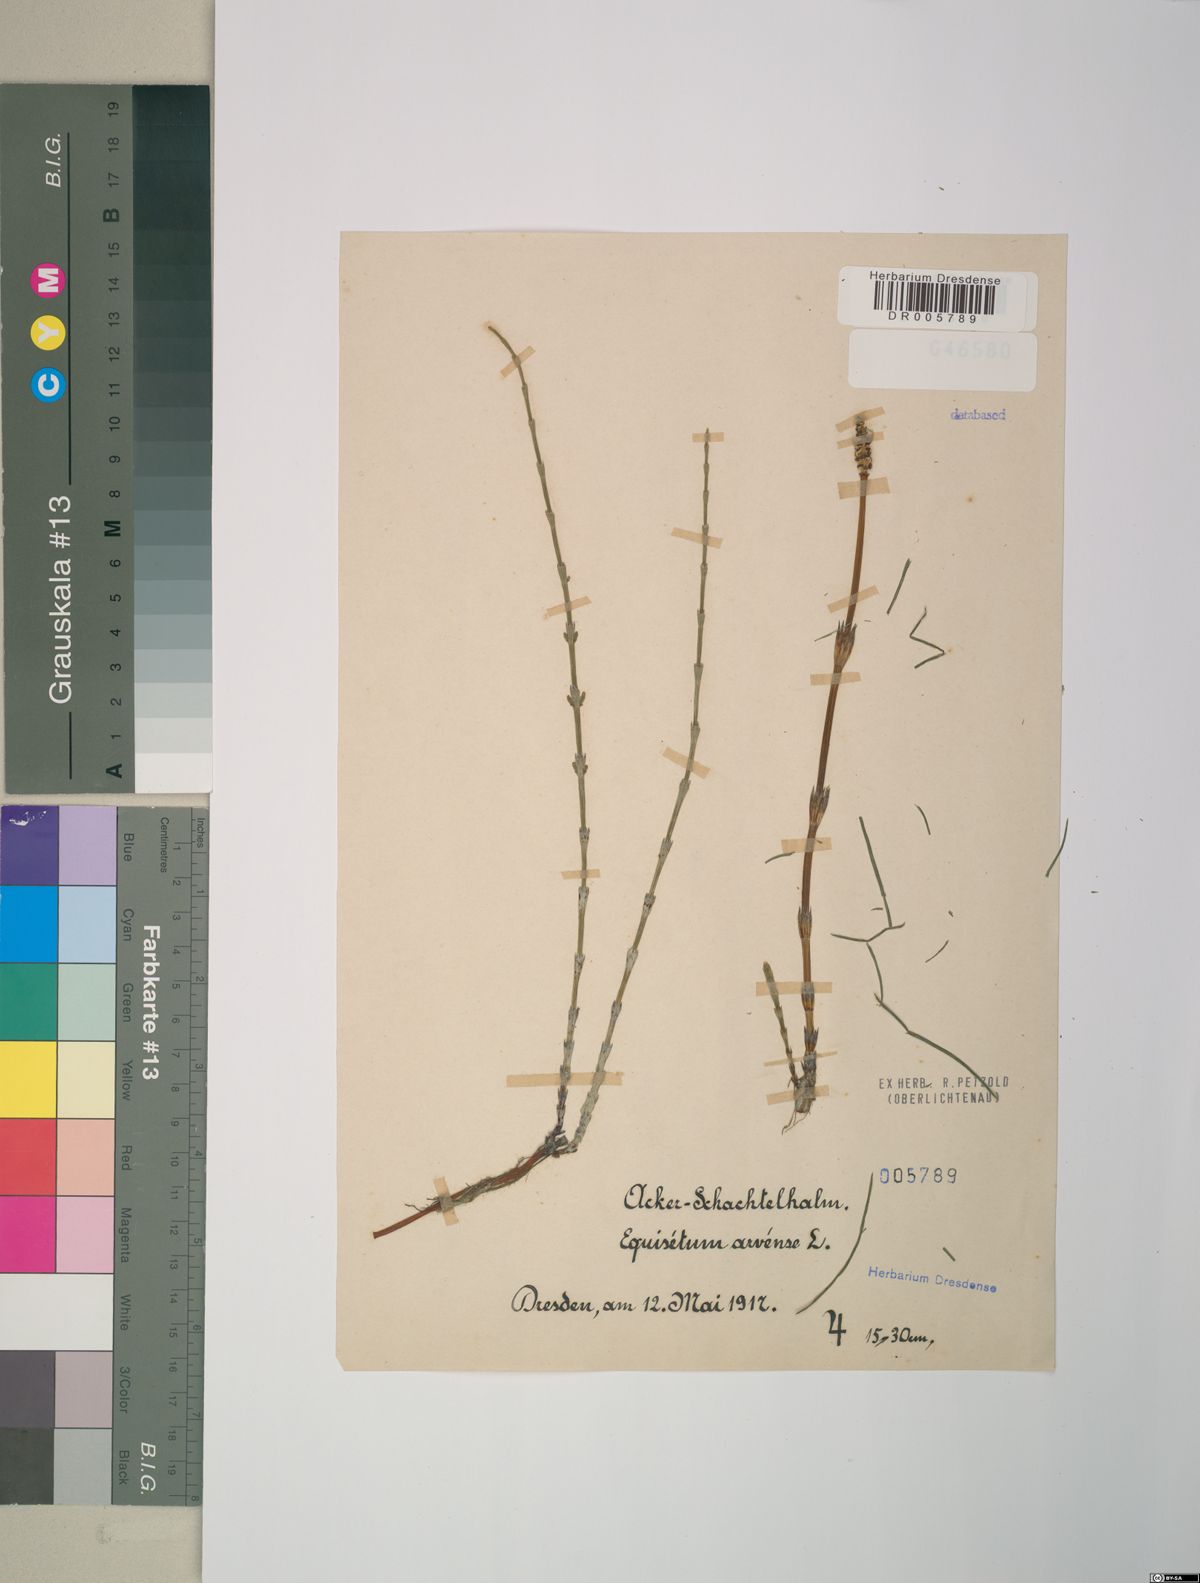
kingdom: Plantae
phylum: Tracheophyta
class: Polypodiopsida
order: Equisetales
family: Equisetaceae
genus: Equisetum
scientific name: Equisetum arvense
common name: Field horsetail
